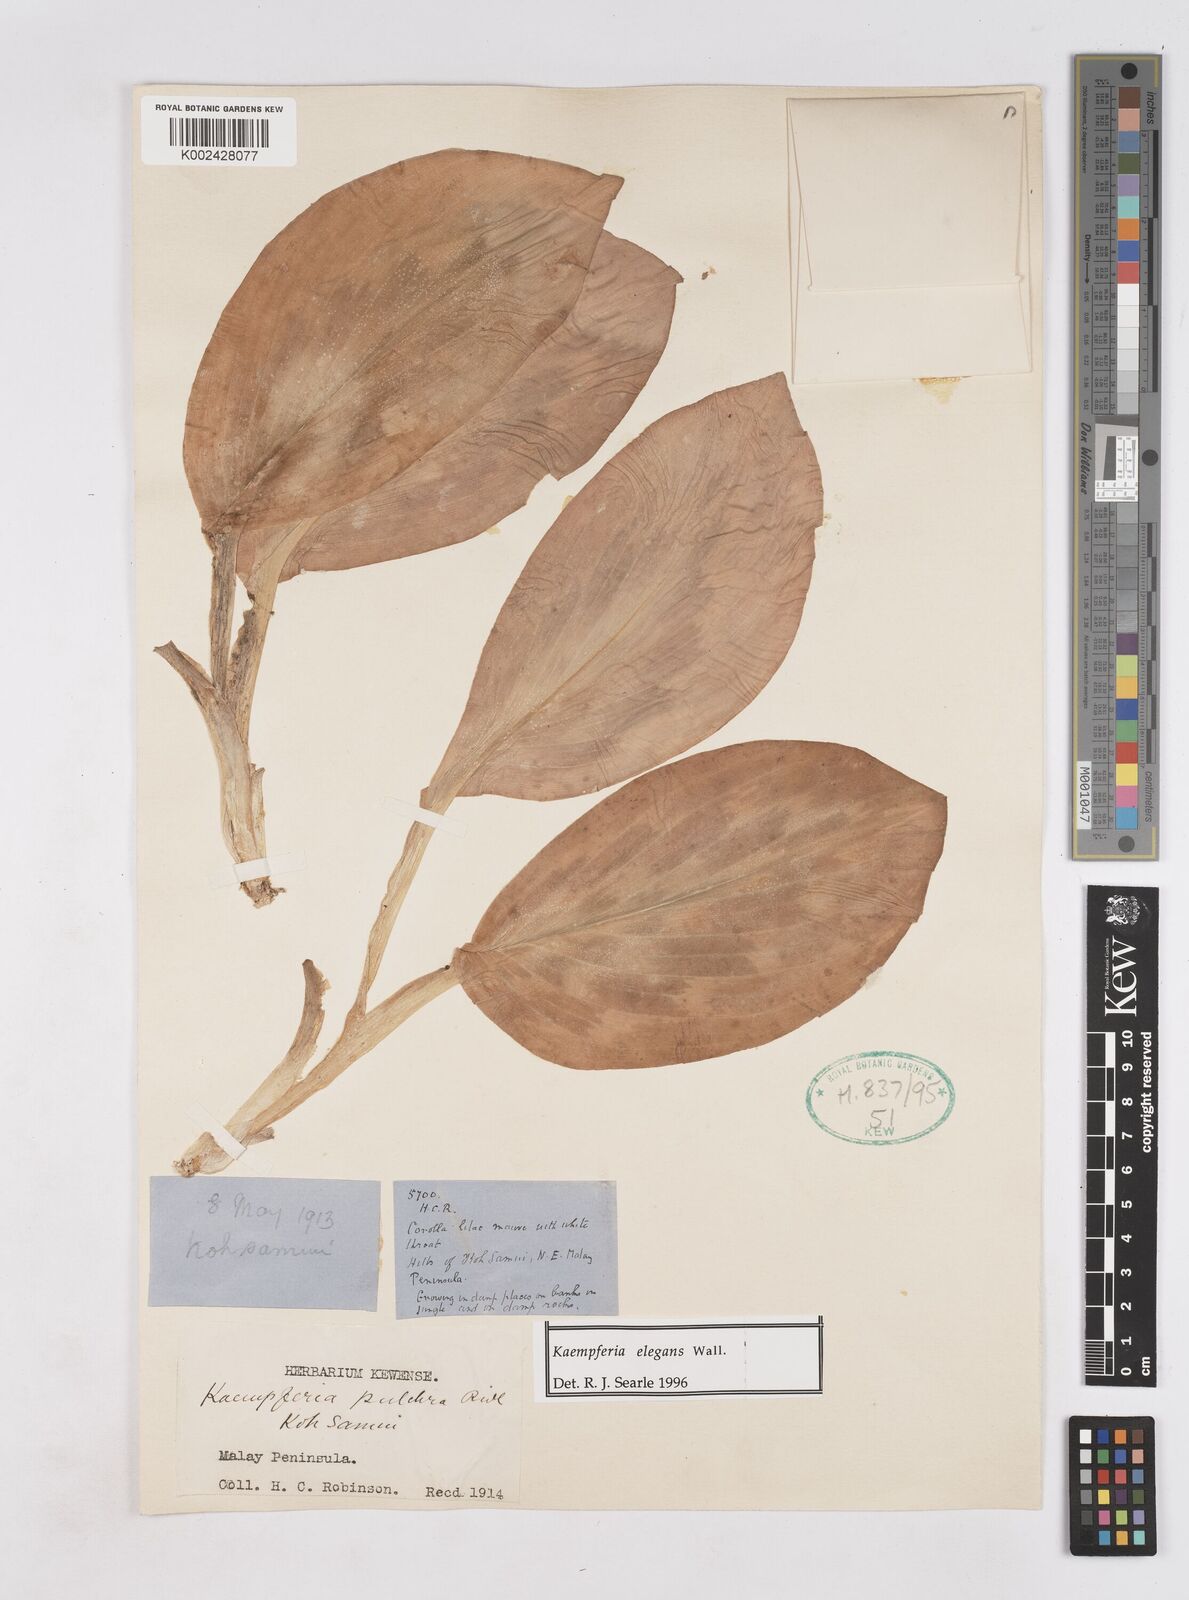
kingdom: Plantae
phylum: Tracheophyta
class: Liliopsida
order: Zingiberales
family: Zingiberaceae
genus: Kaempferia
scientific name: Kaempferia elegans
